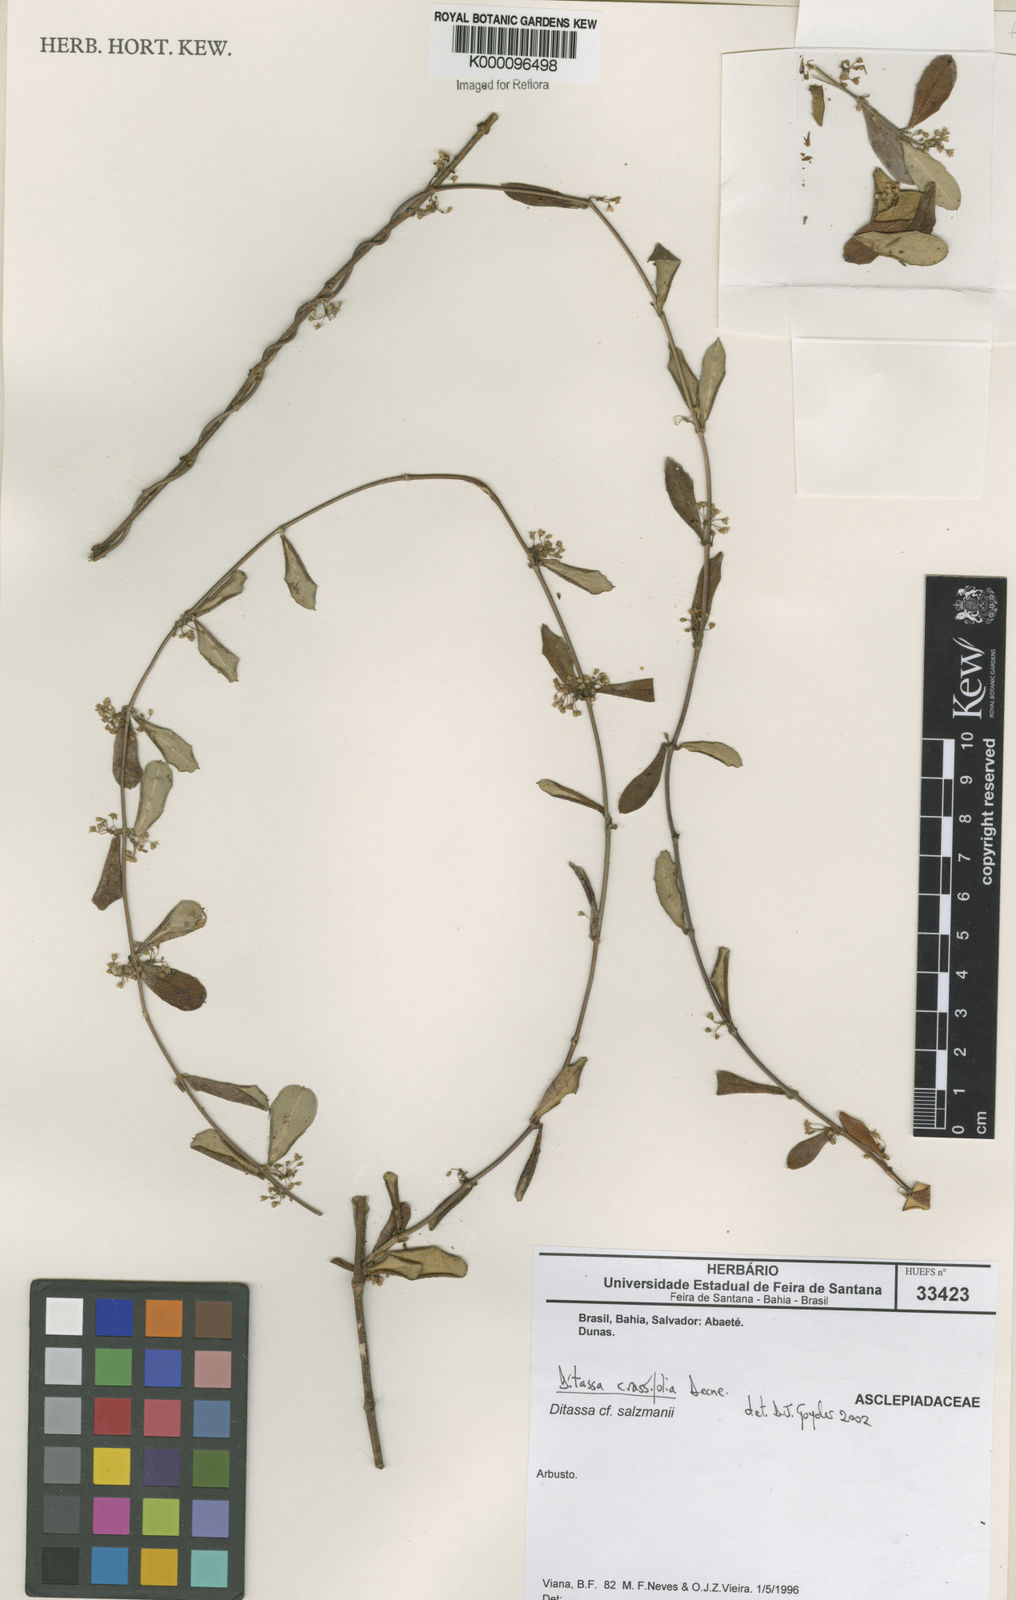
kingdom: Plantae
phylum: Tracheophyta
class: Magnoliopsida
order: Gentianales
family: Apocynaceae
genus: Ditassa
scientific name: Ditassa crassifolia
